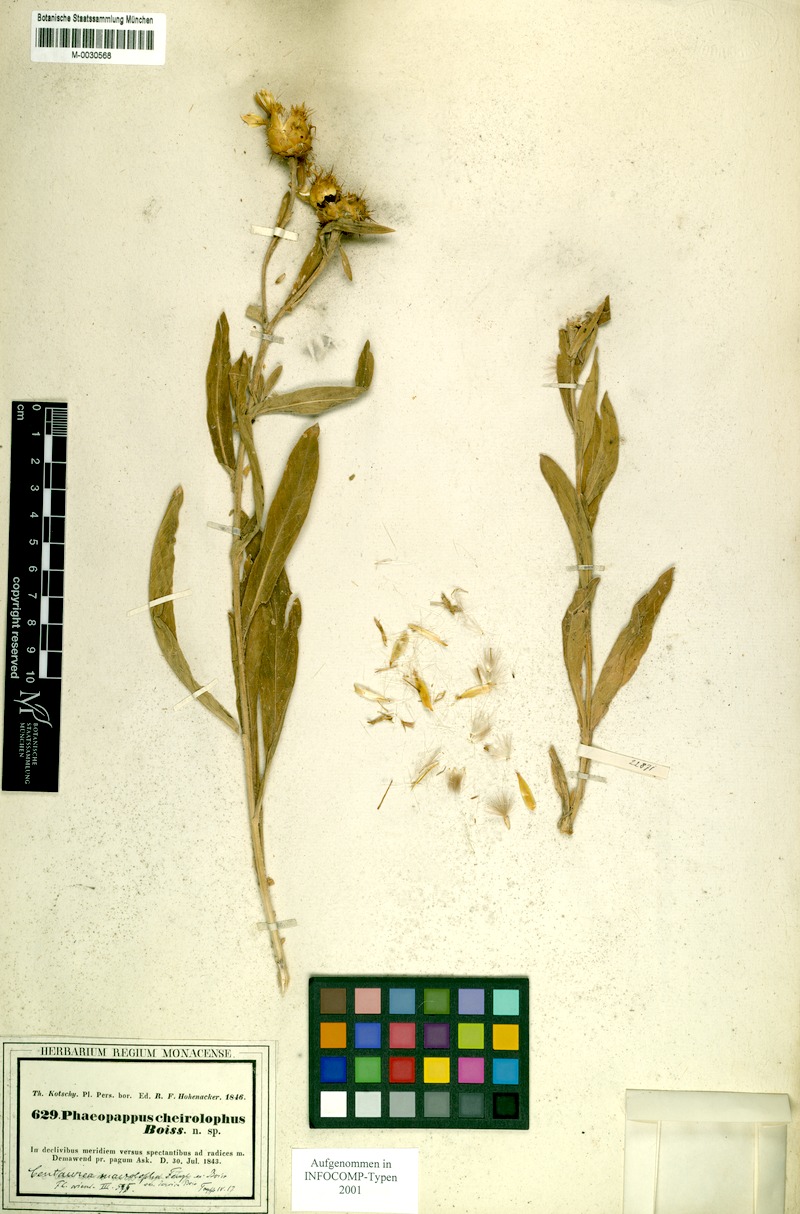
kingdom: Plantae
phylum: Tracheophyta
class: Magnoliopsida
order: Asterales
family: Asteraceae
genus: Centaurea
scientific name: Centaurea kotschyi
